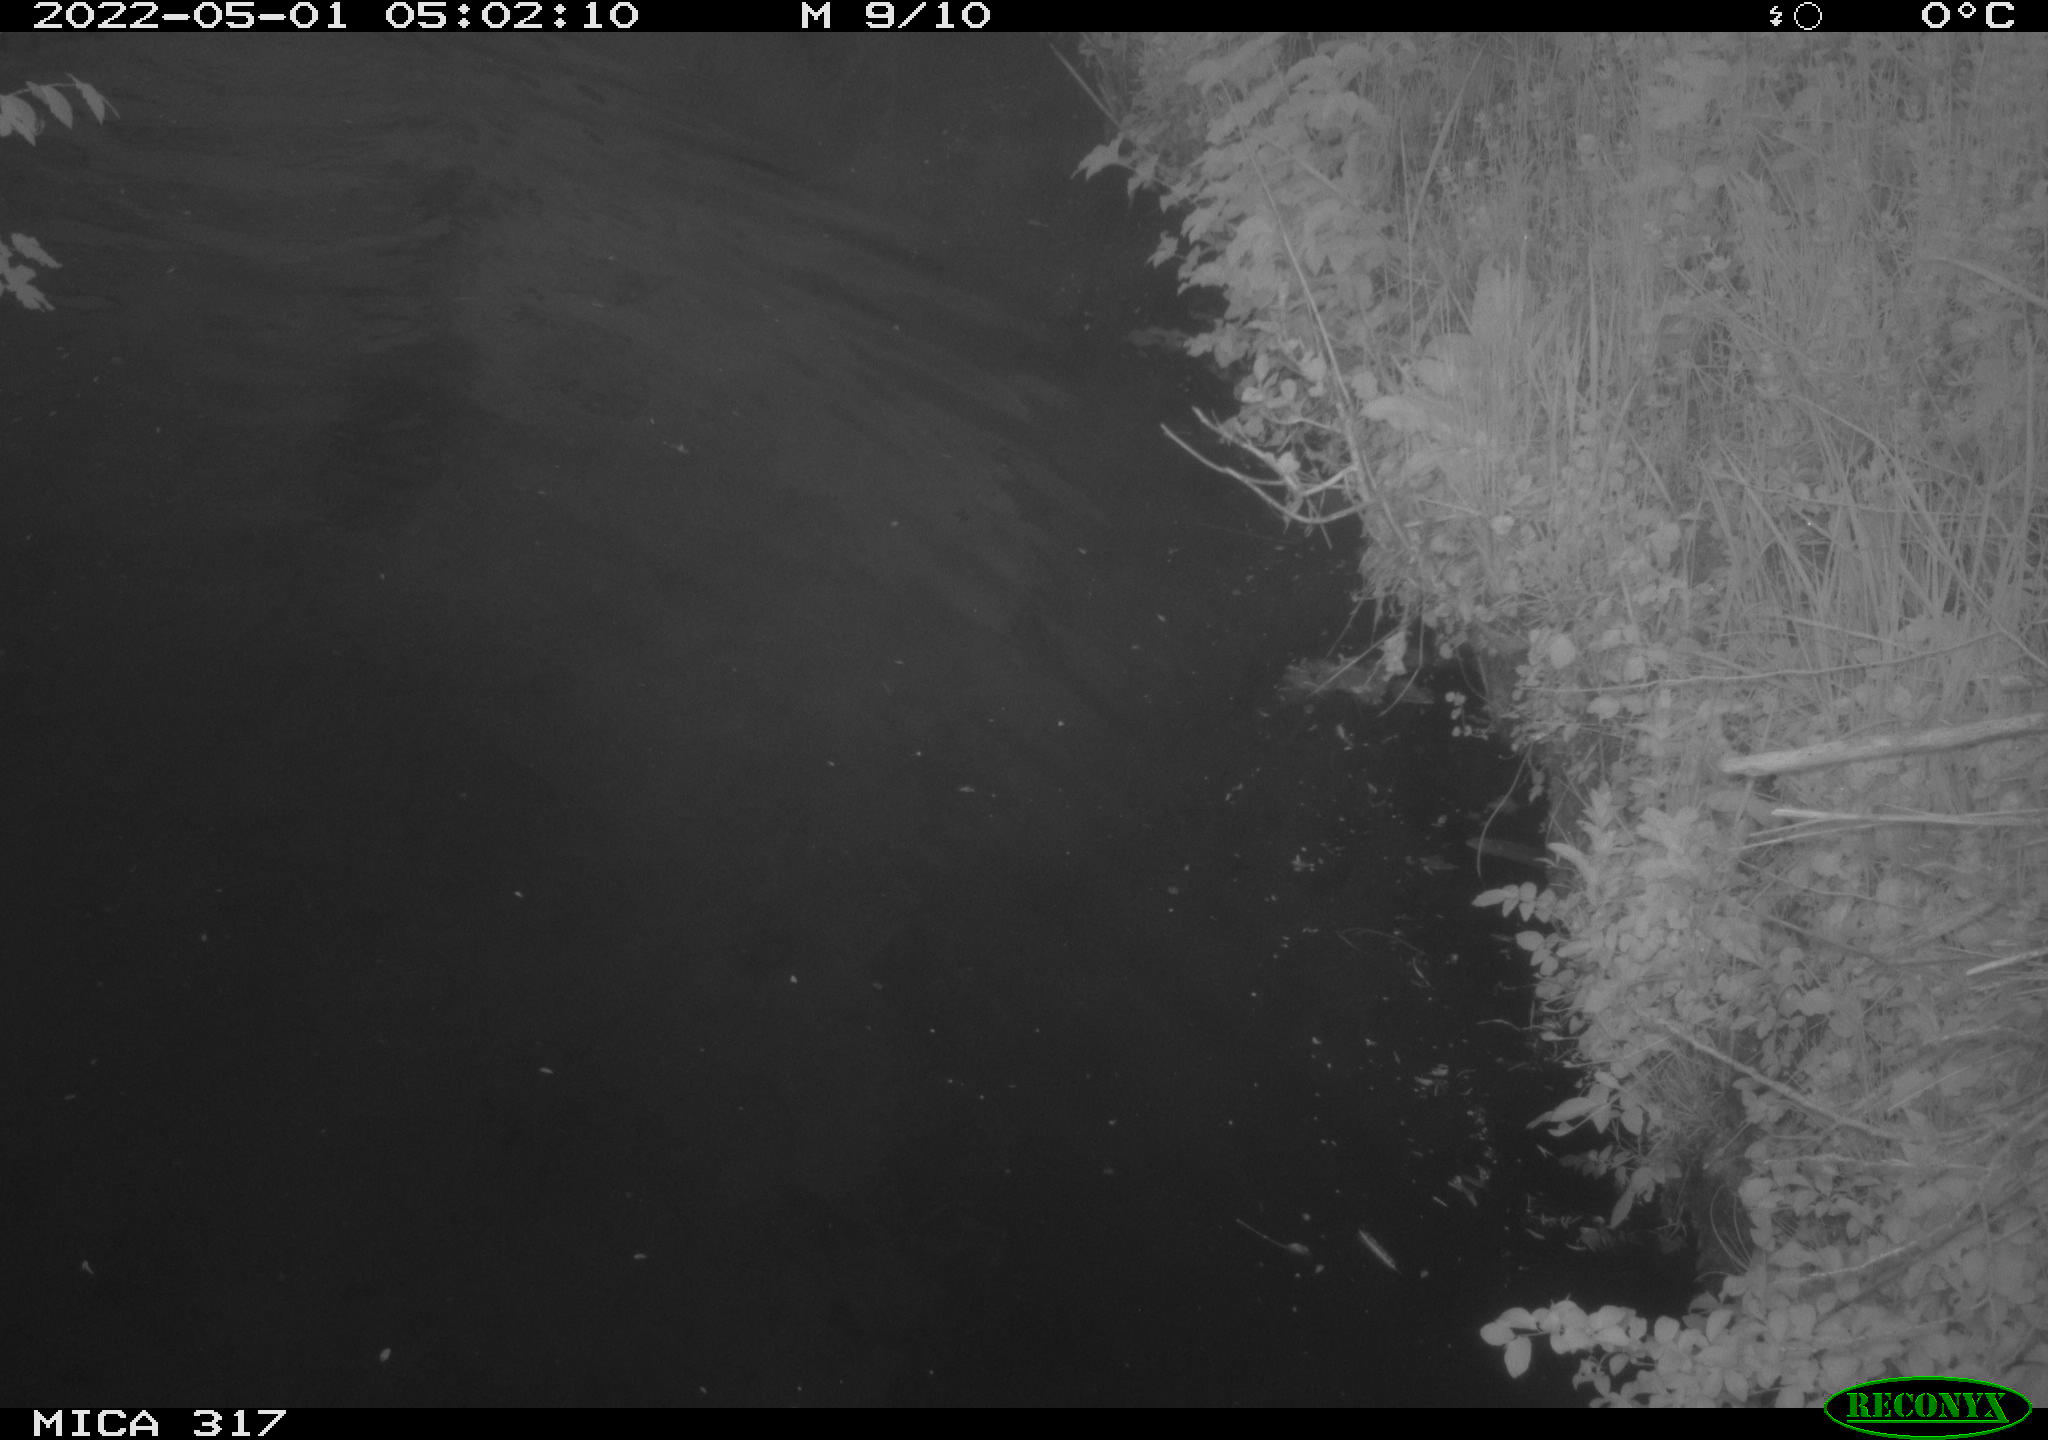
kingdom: Animalia
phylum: Chordata
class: Aves
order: Anseriformes
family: Anatidae
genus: Anas
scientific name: Anas platyrhynchos
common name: Mallard
